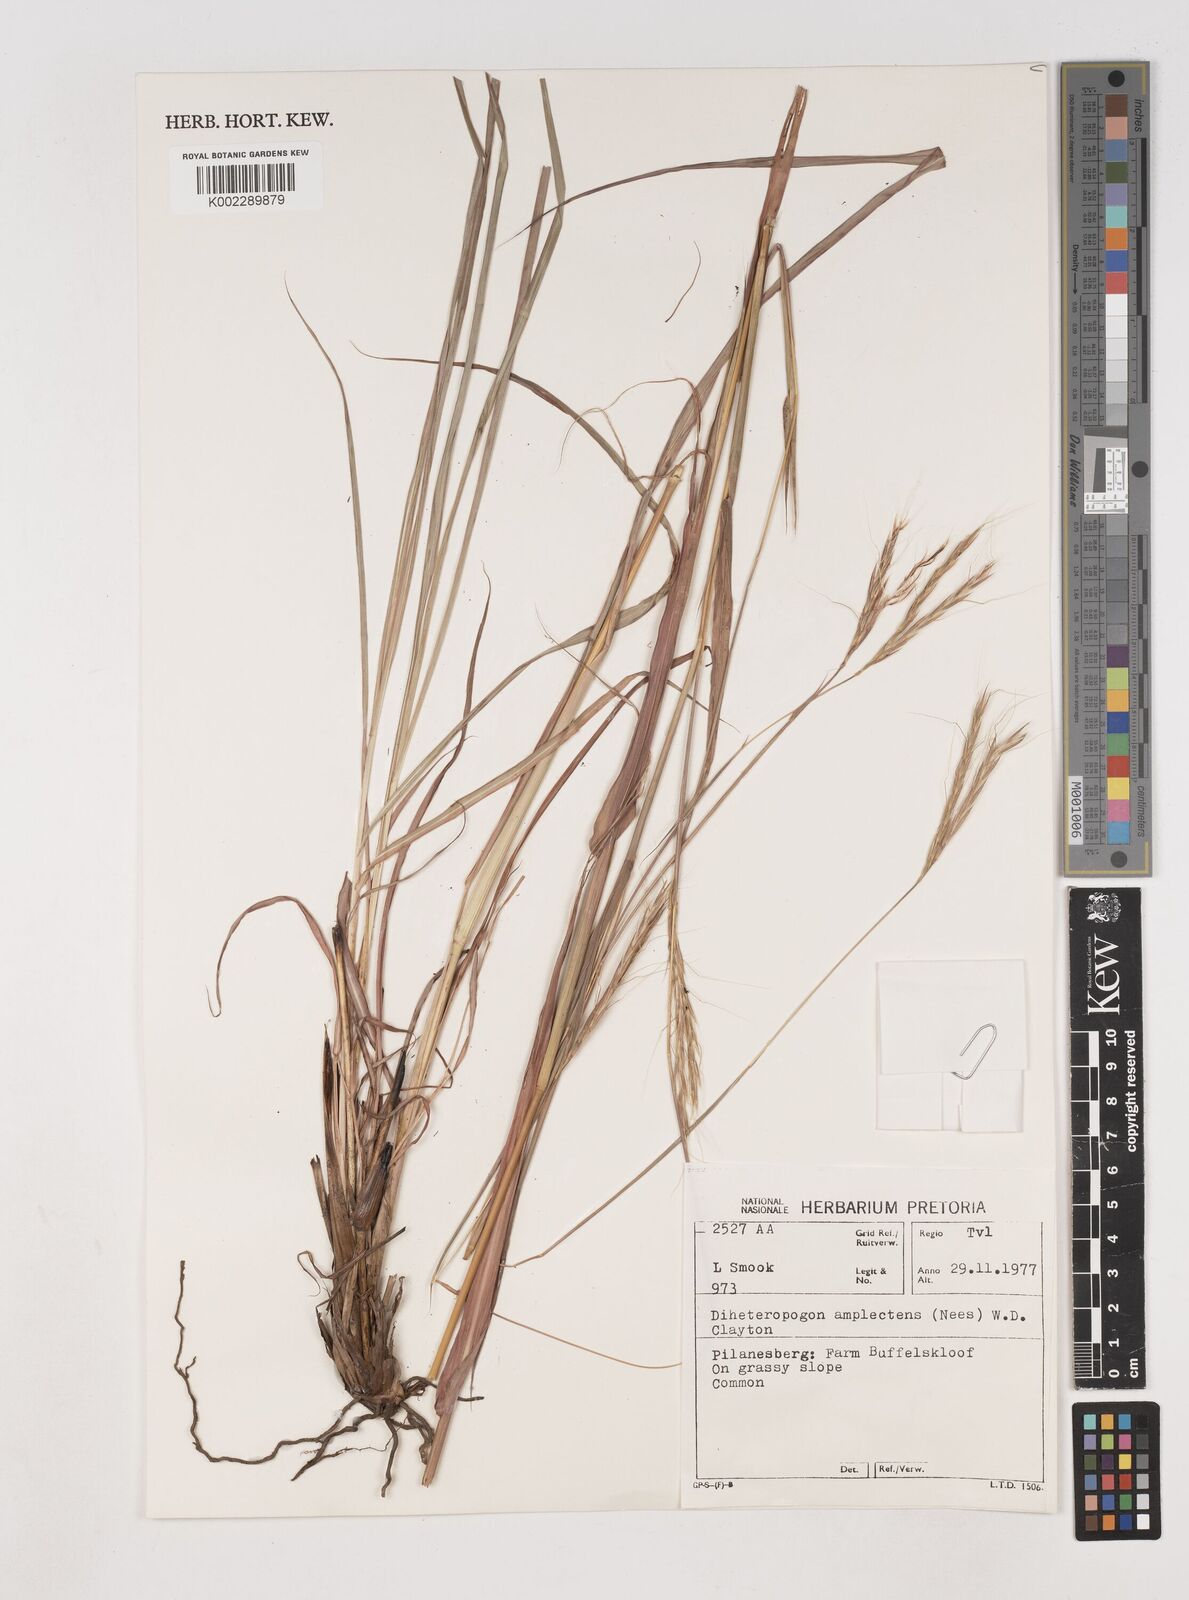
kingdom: Plantae
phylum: Tracheophyta
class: Liliopsida
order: Poales
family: Poaceae
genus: Diheteropogon
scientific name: Diheteropogon amplectens
